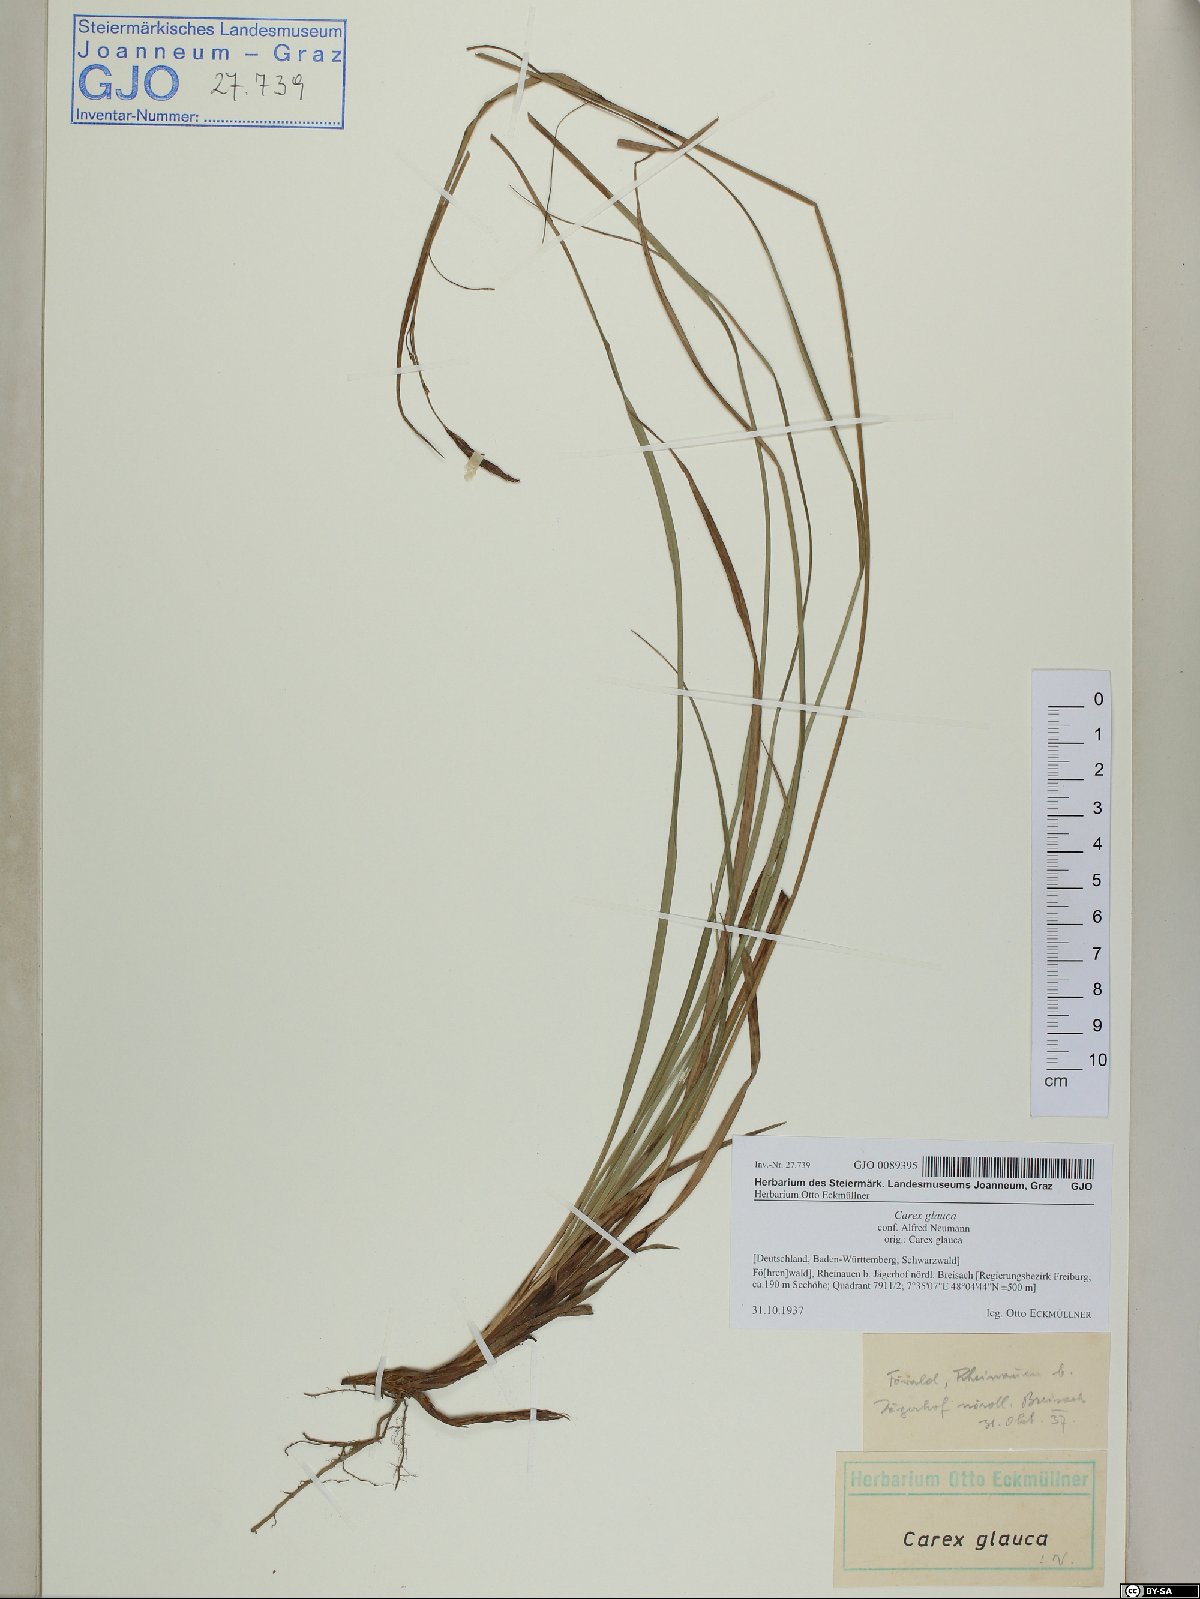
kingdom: Plantae
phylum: Tracheophyta
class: Liliopsida
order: Poales
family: Cyperaceae
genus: Carex
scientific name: Carex flacca
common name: Glaucous sedge
